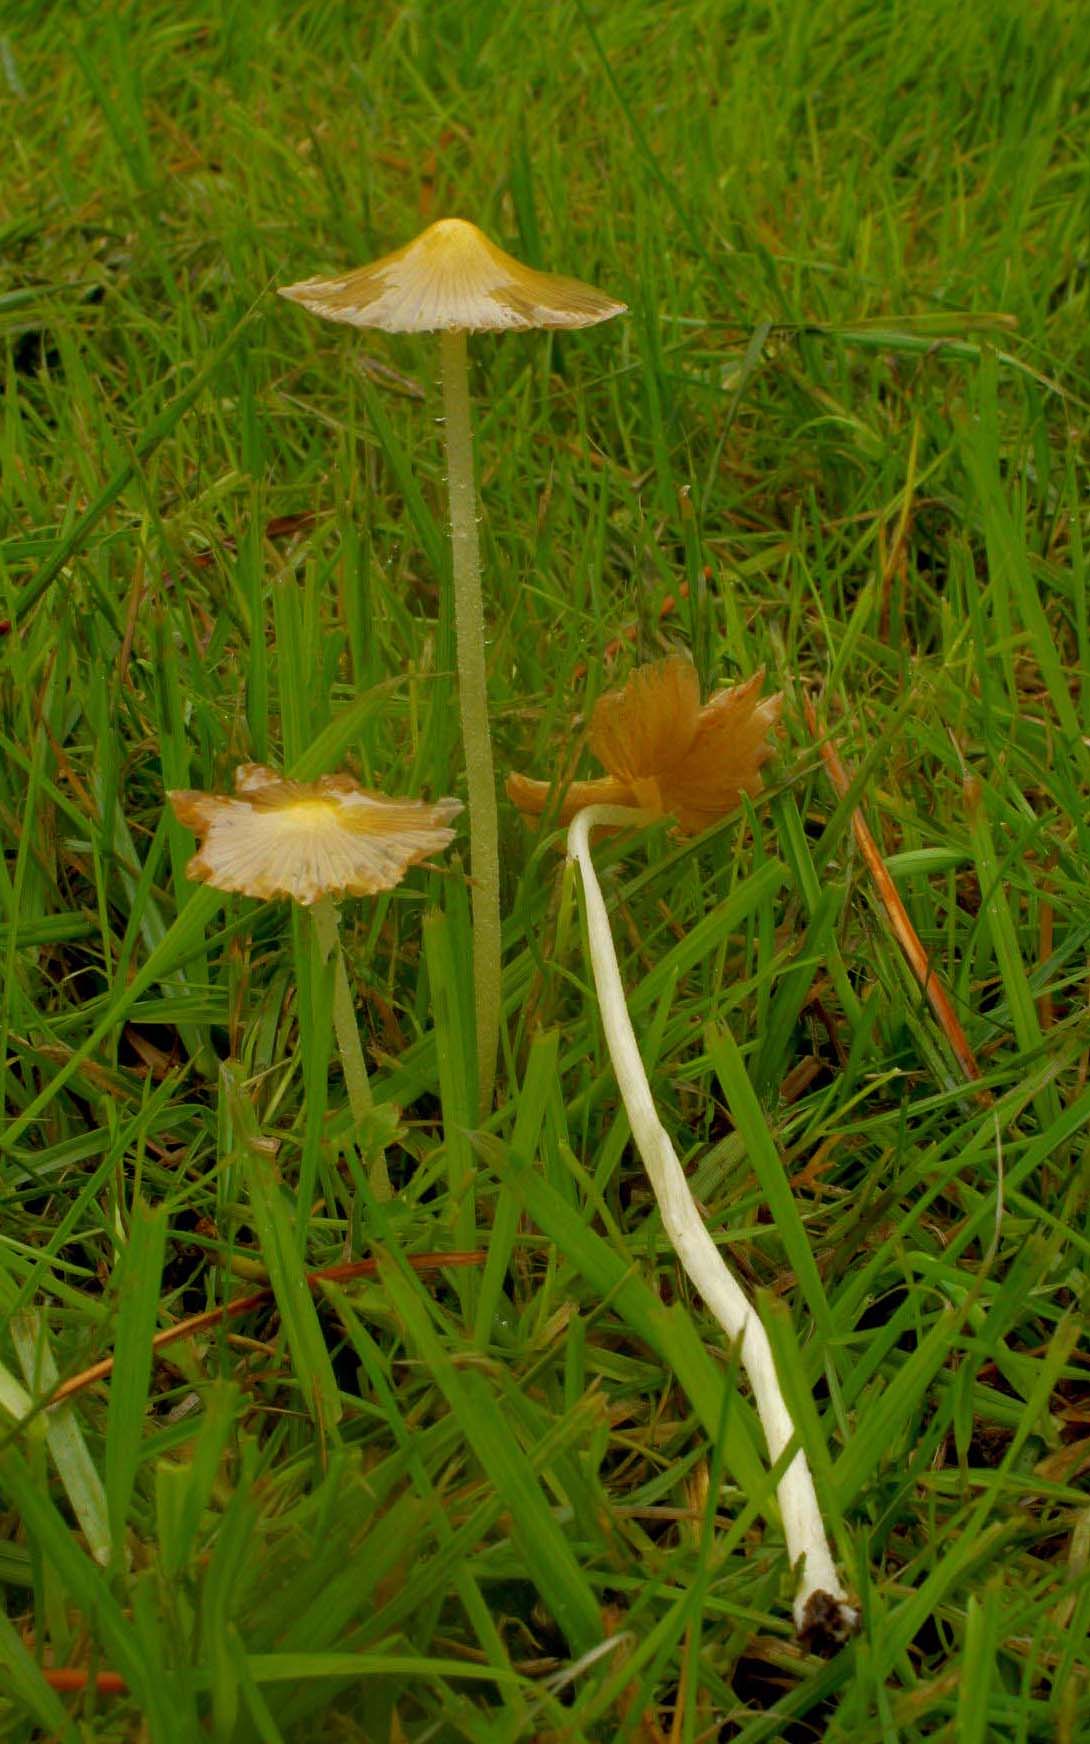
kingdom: Fungi
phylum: Basidiomycota
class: Agaricomycetes
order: Agaricales
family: Bolbitiaceae
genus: Bolbitius
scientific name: Bolbitius titubans
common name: almindelig gulhat
